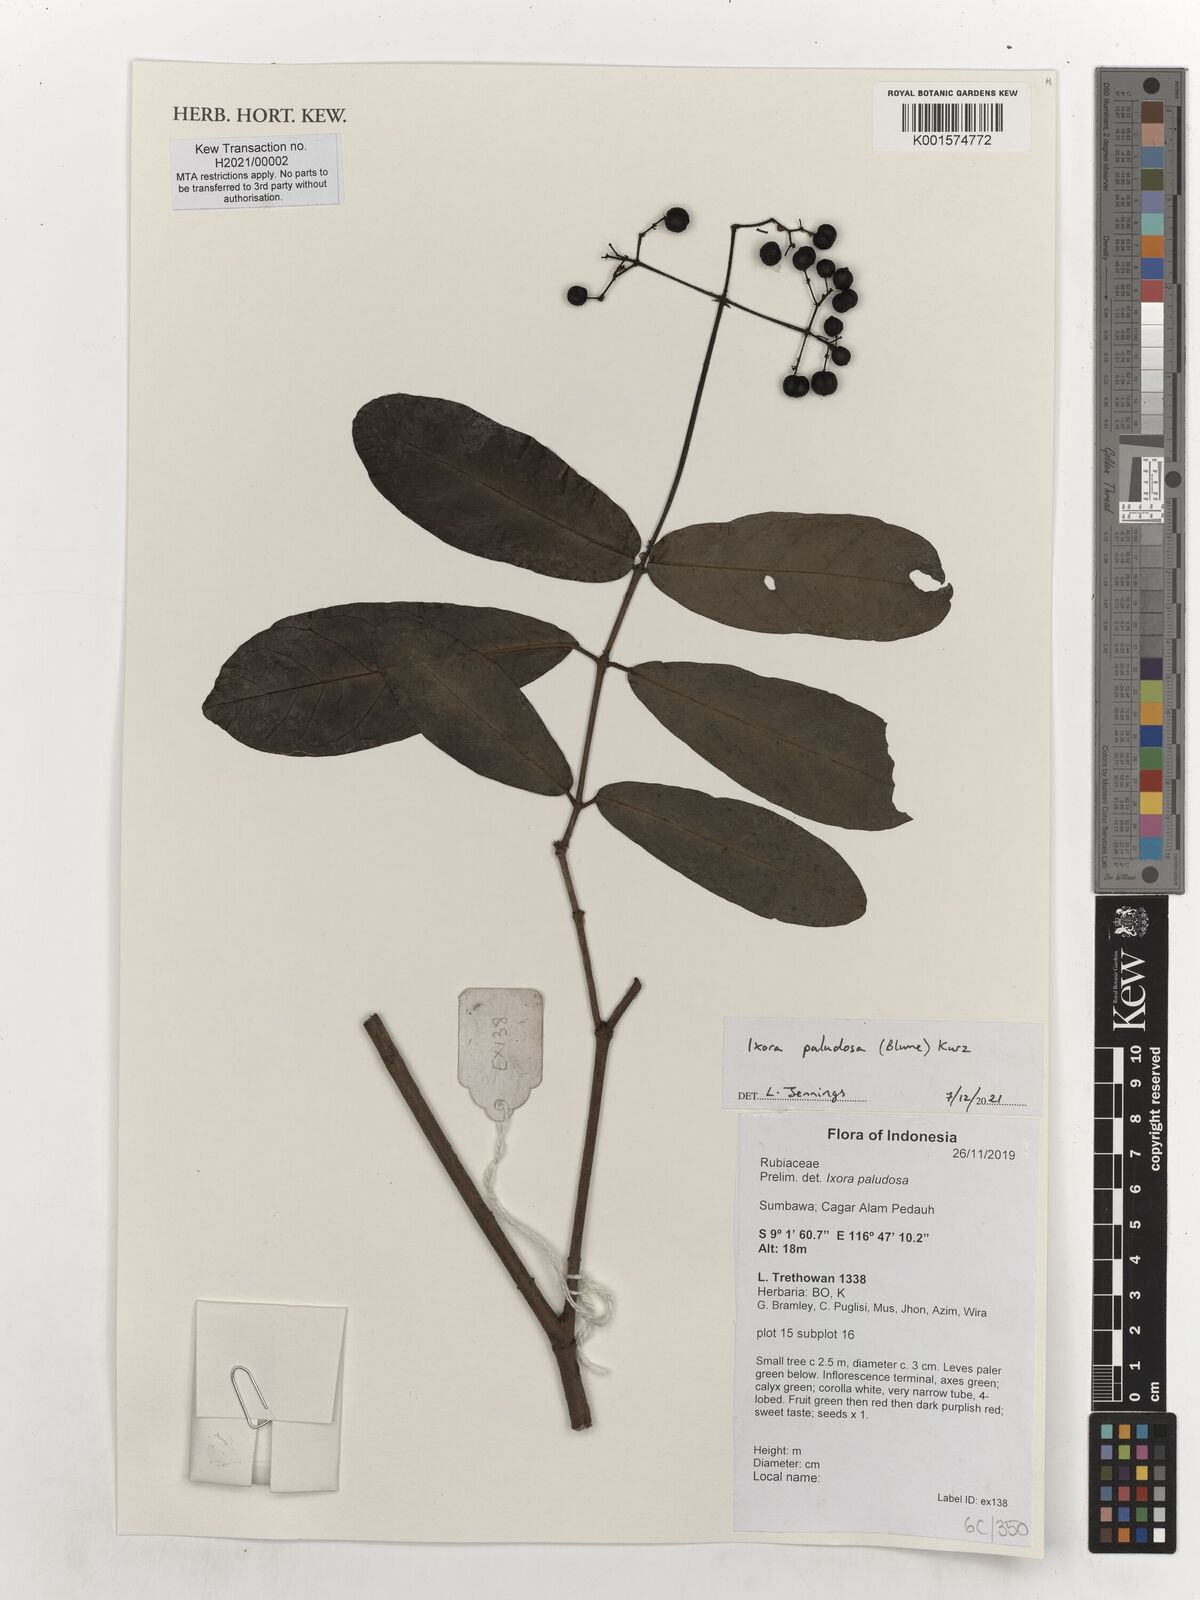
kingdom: Plantae
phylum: Tracheophyta
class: Magnoliopsida
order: Gentianales
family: Rubiaceae
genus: Ixora
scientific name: Ixora paludosa
